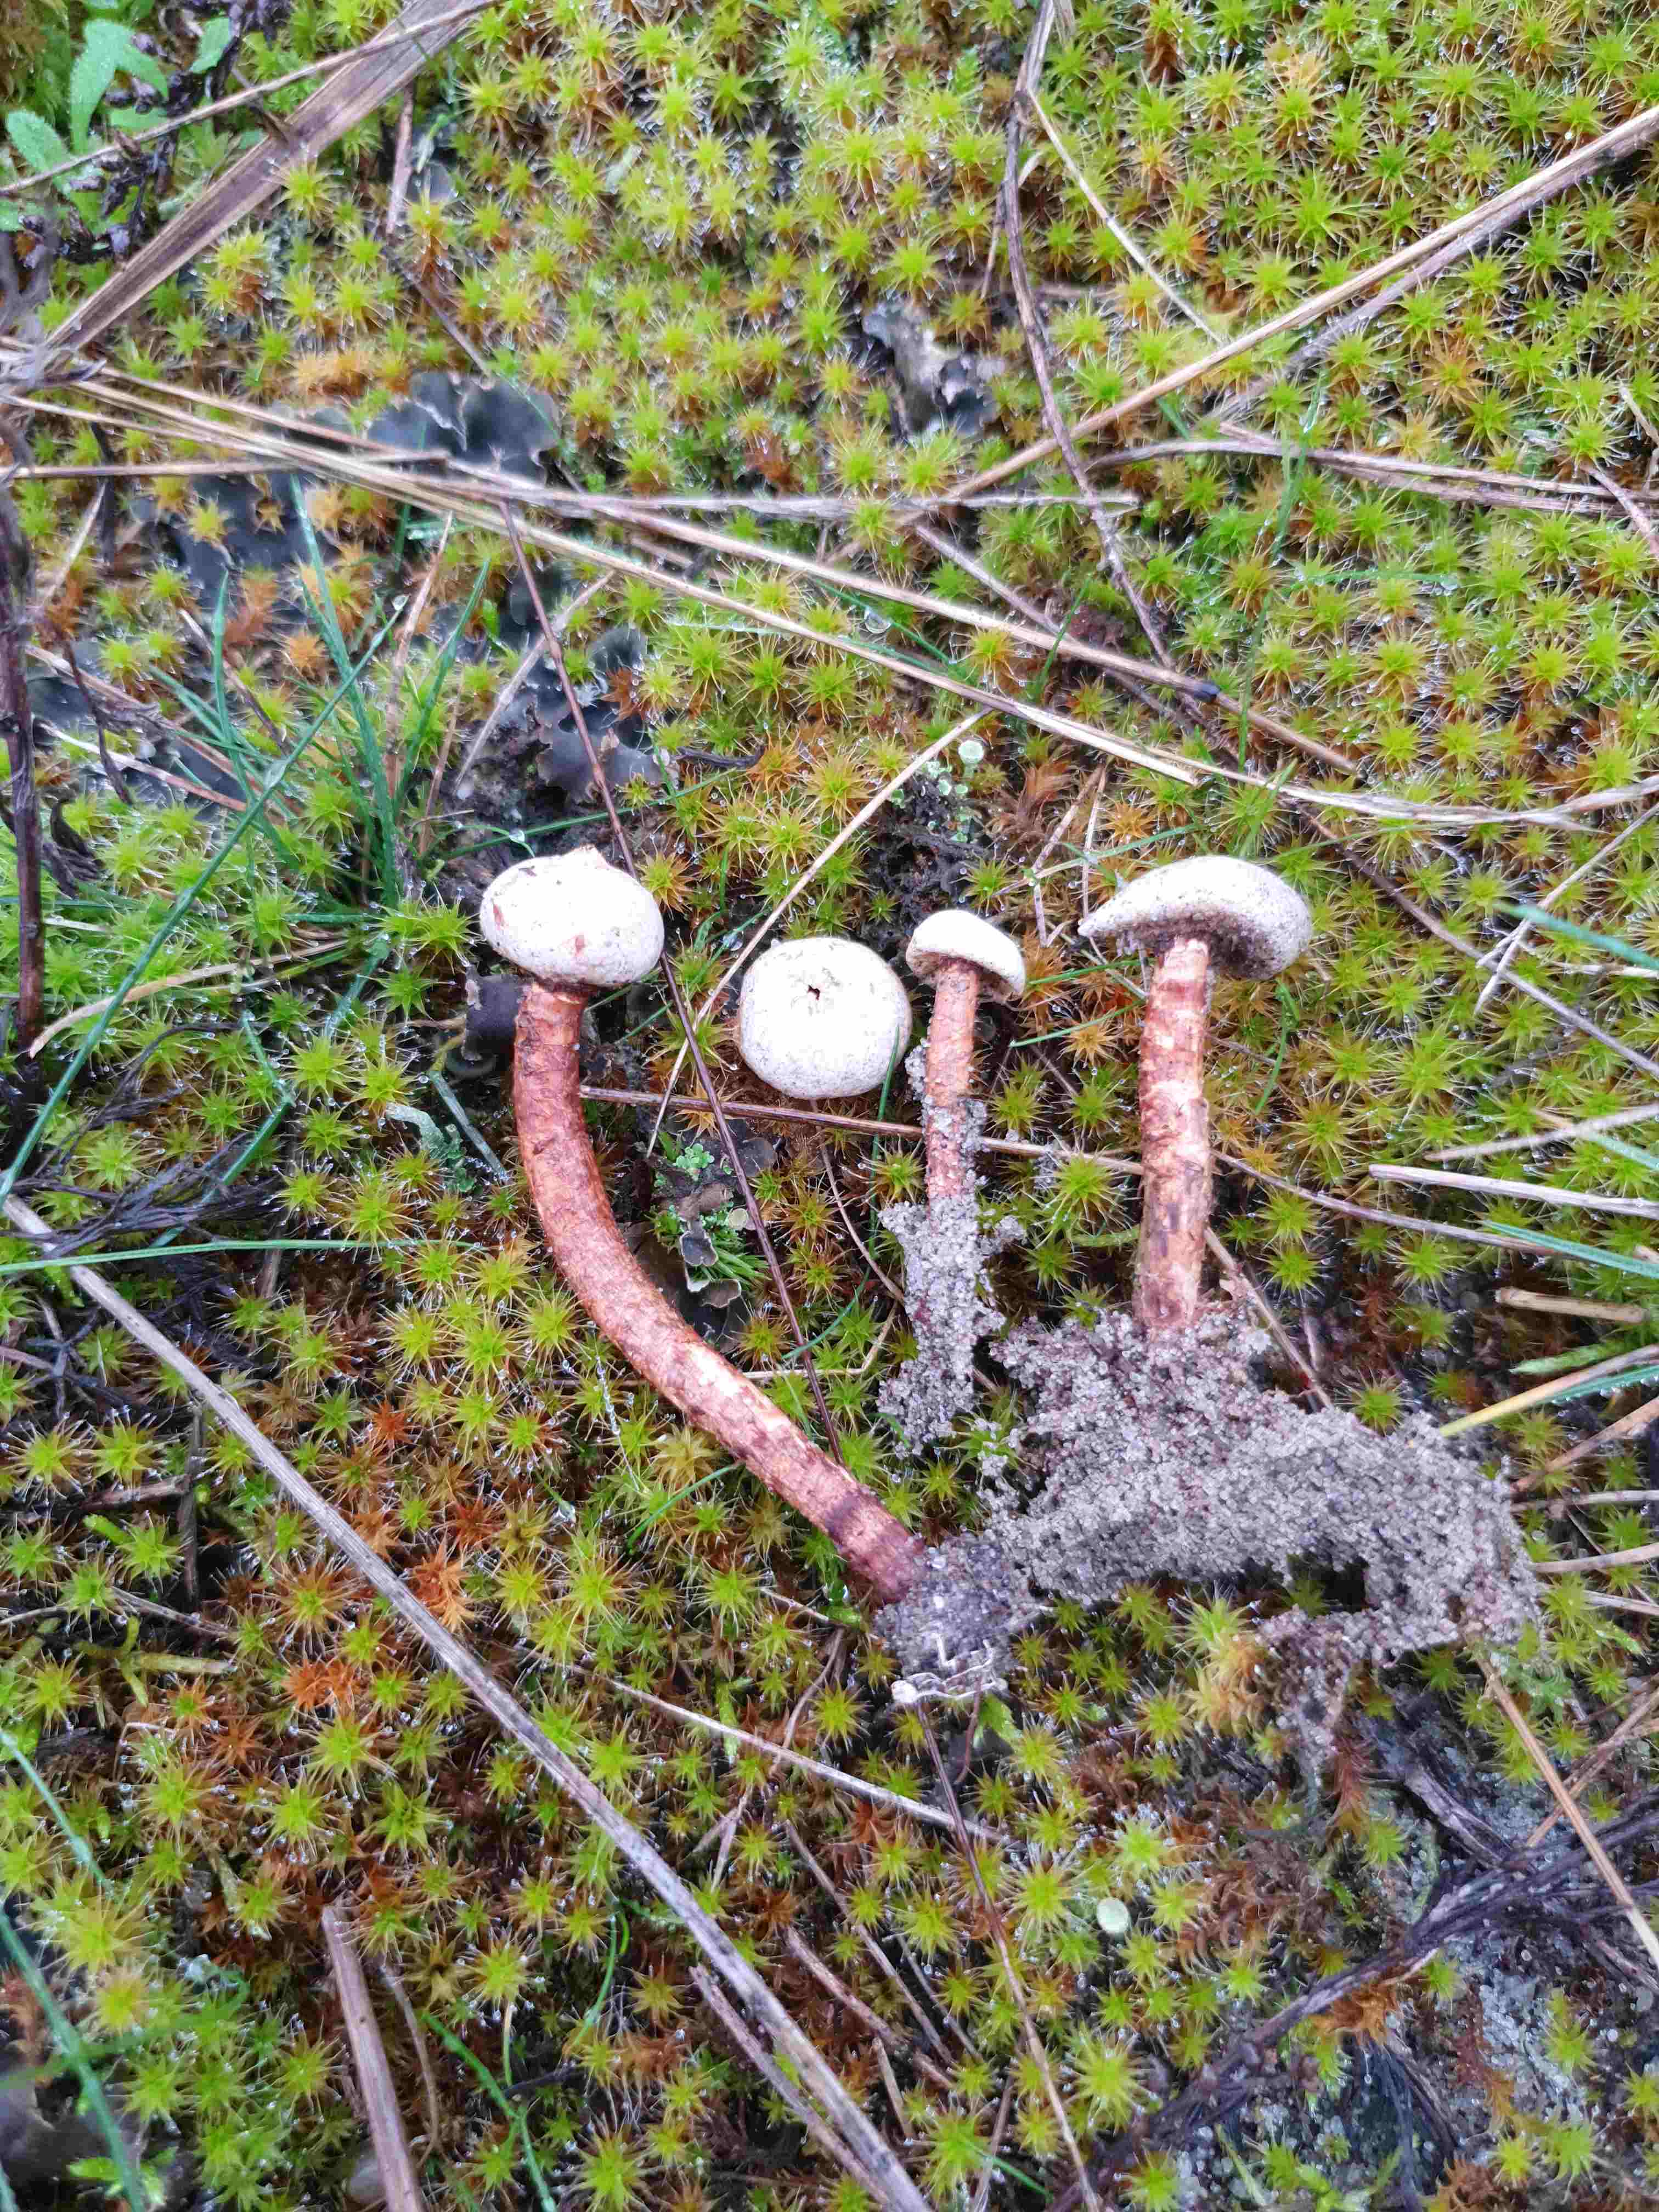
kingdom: Fungi
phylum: Basidiomycota
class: Agaricomycetes
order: Agaricales
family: Agaricaceae
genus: Tulostoma
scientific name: Tulostoma winterhoffii
